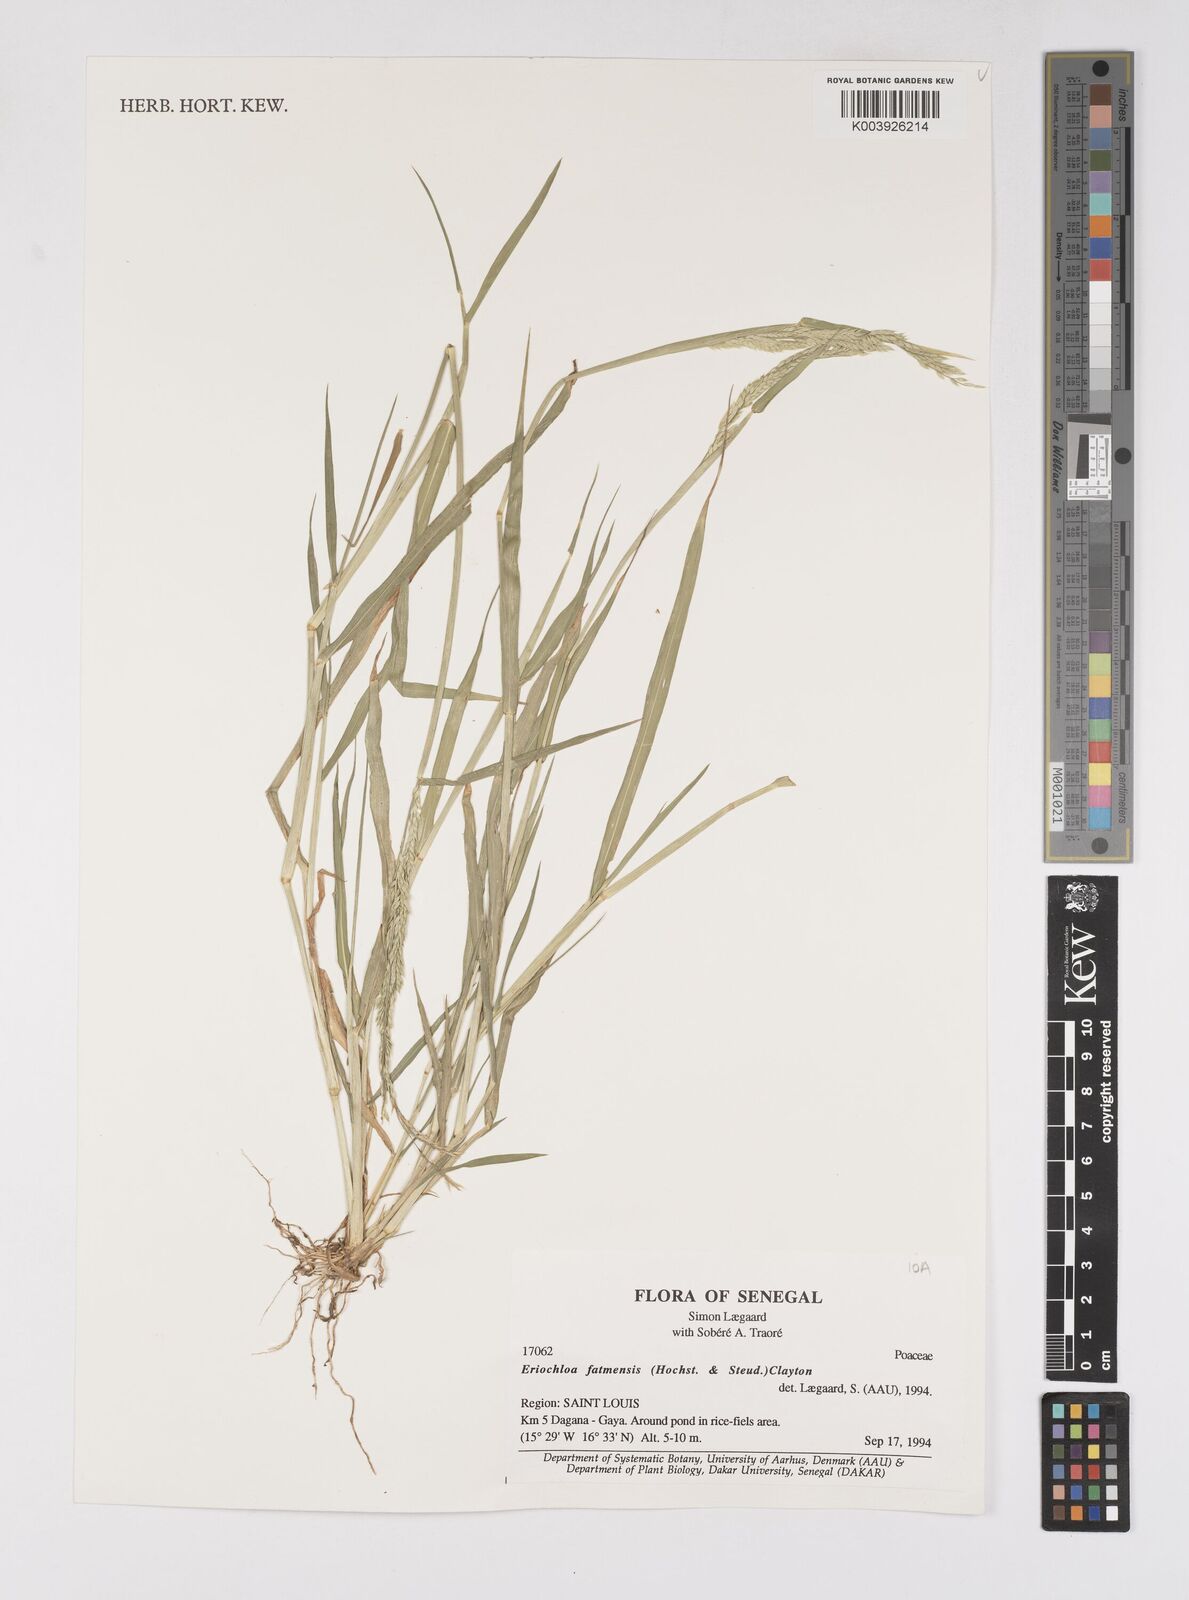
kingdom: Plantae
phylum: Tracheophyta
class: Liliopsida
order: Poales
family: Poaceae
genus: Eriochloa
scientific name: Eriochloa barbatus
